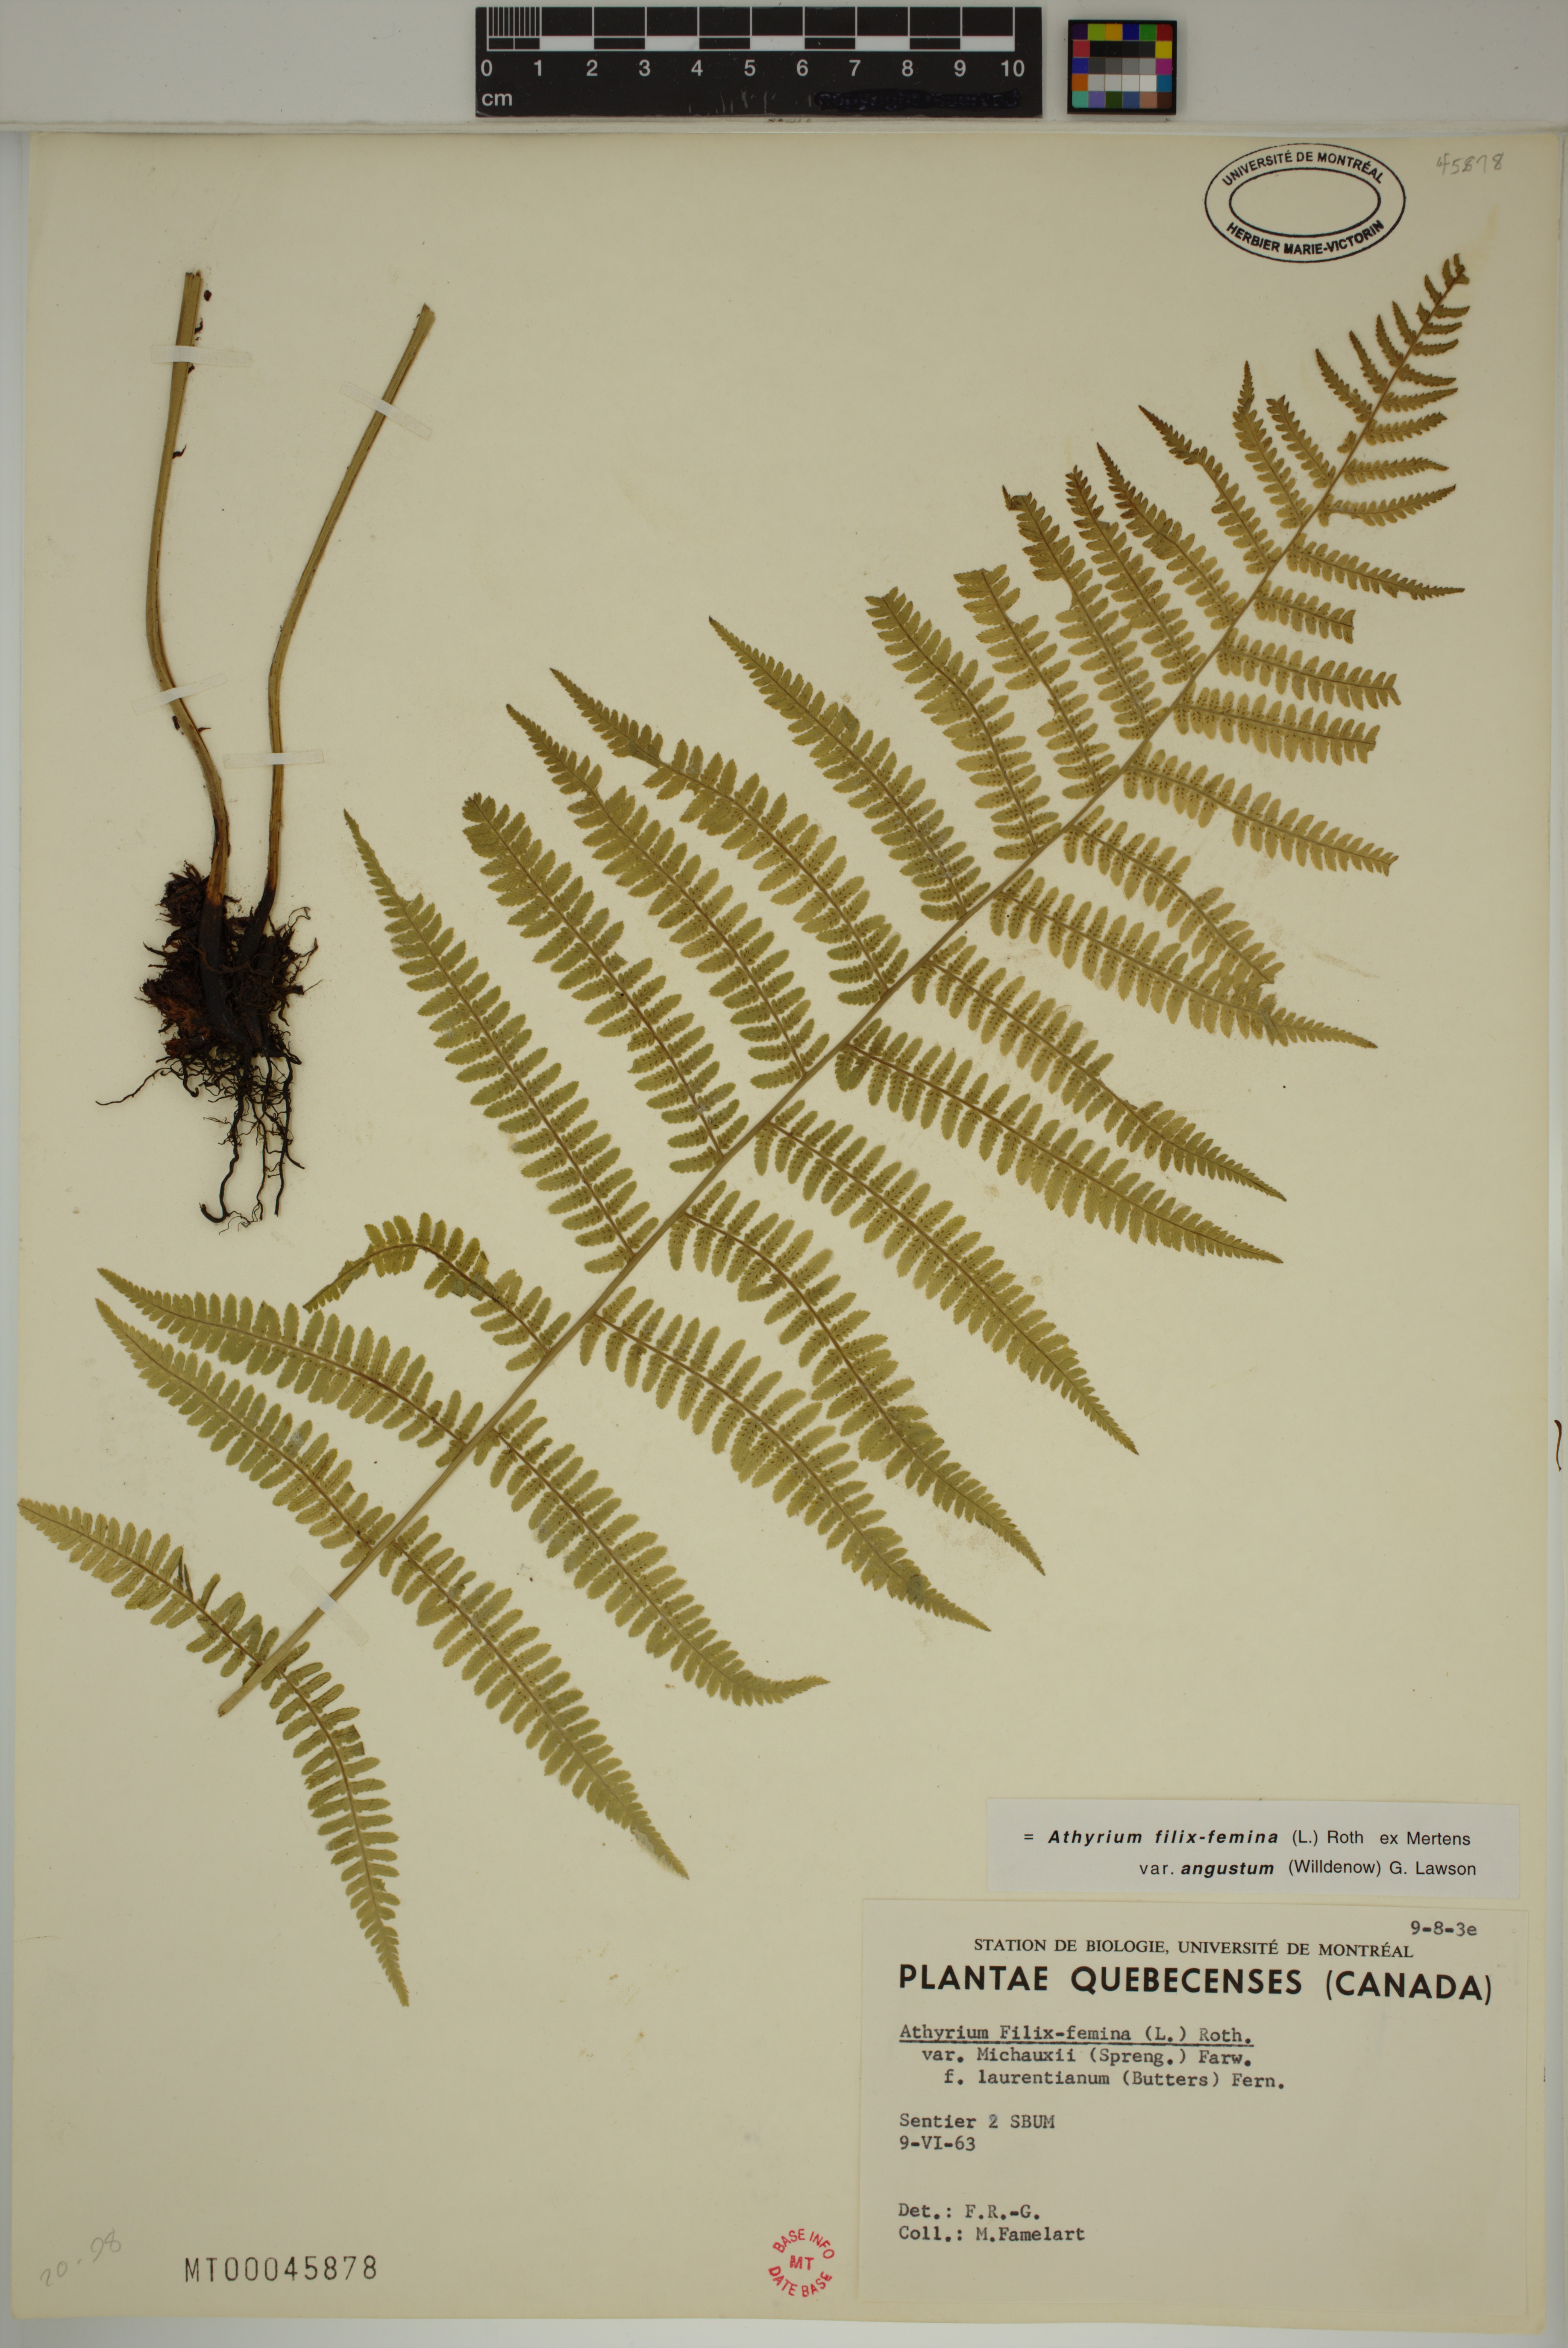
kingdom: Plantae
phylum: Tracheophyta
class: Polypodiopsida
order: Polypodiales
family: Athyriaceae
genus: Athyrium
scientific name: Athyrium angustum
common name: Northern lady fern
